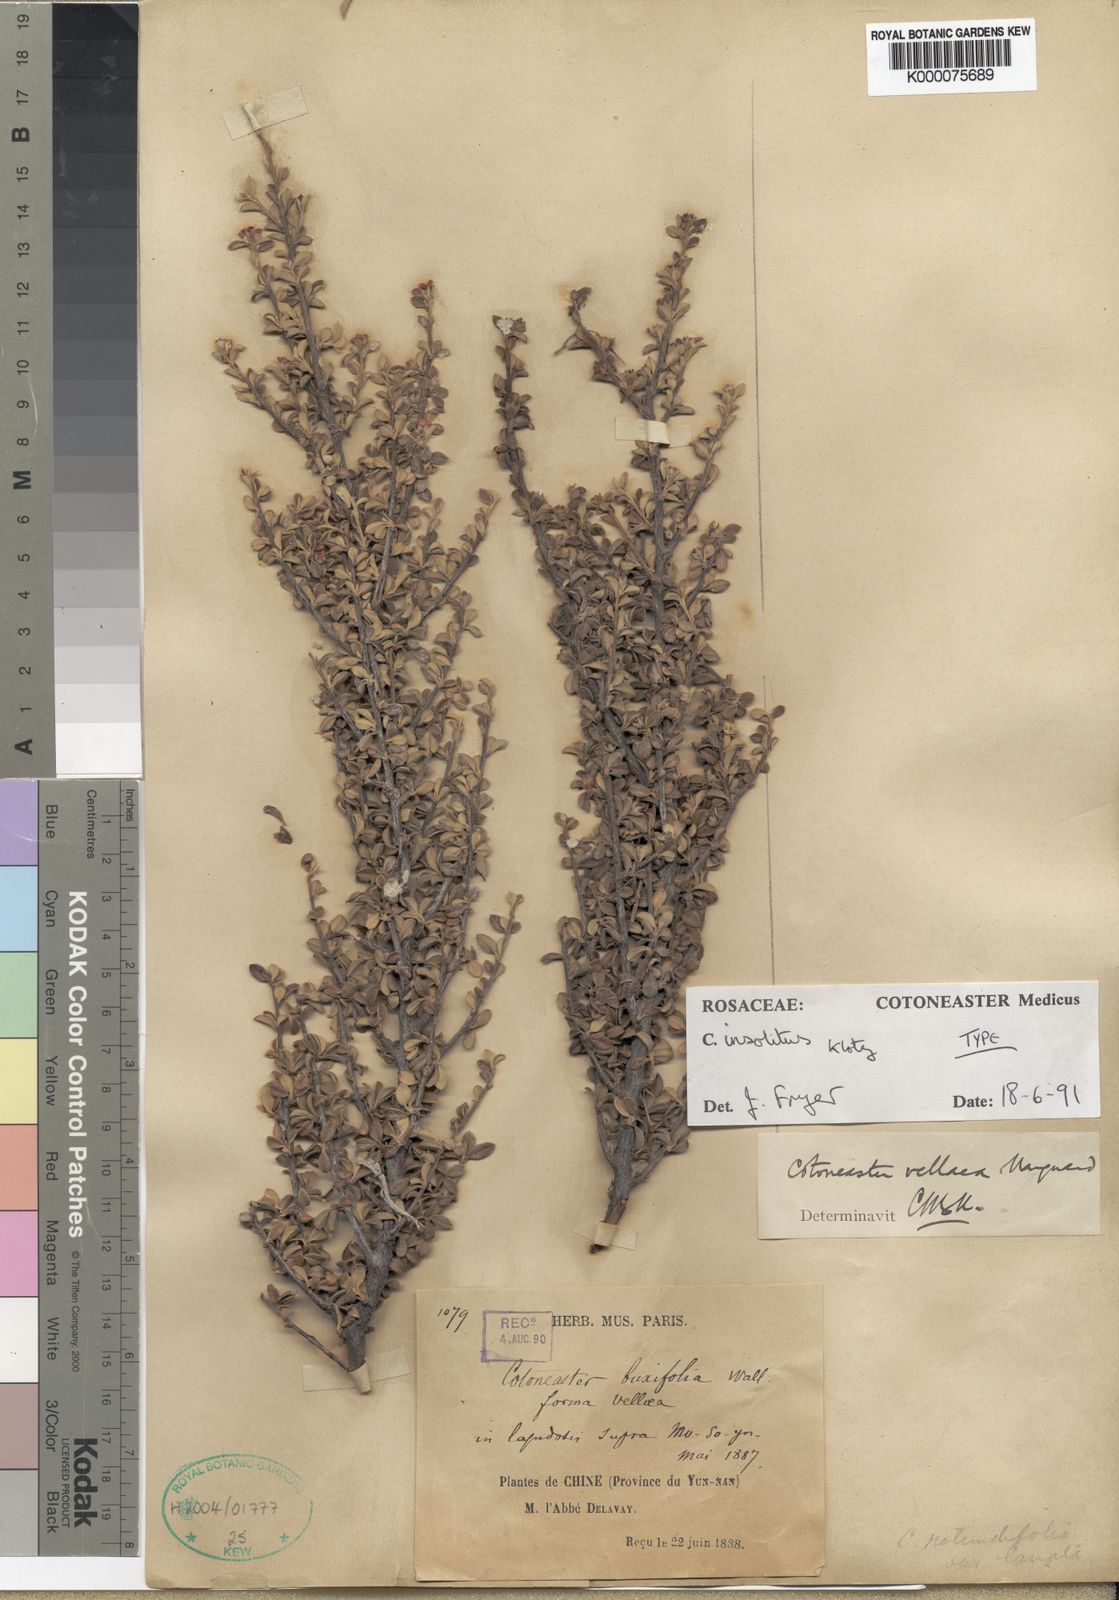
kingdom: Plantae
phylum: Tracheophyta
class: Magnoliopsida
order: Rosales
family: Rosaceae
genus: Cotoneaster
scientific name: Cotoneaster integrifolius
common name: Entire-leaved cotoneaster
